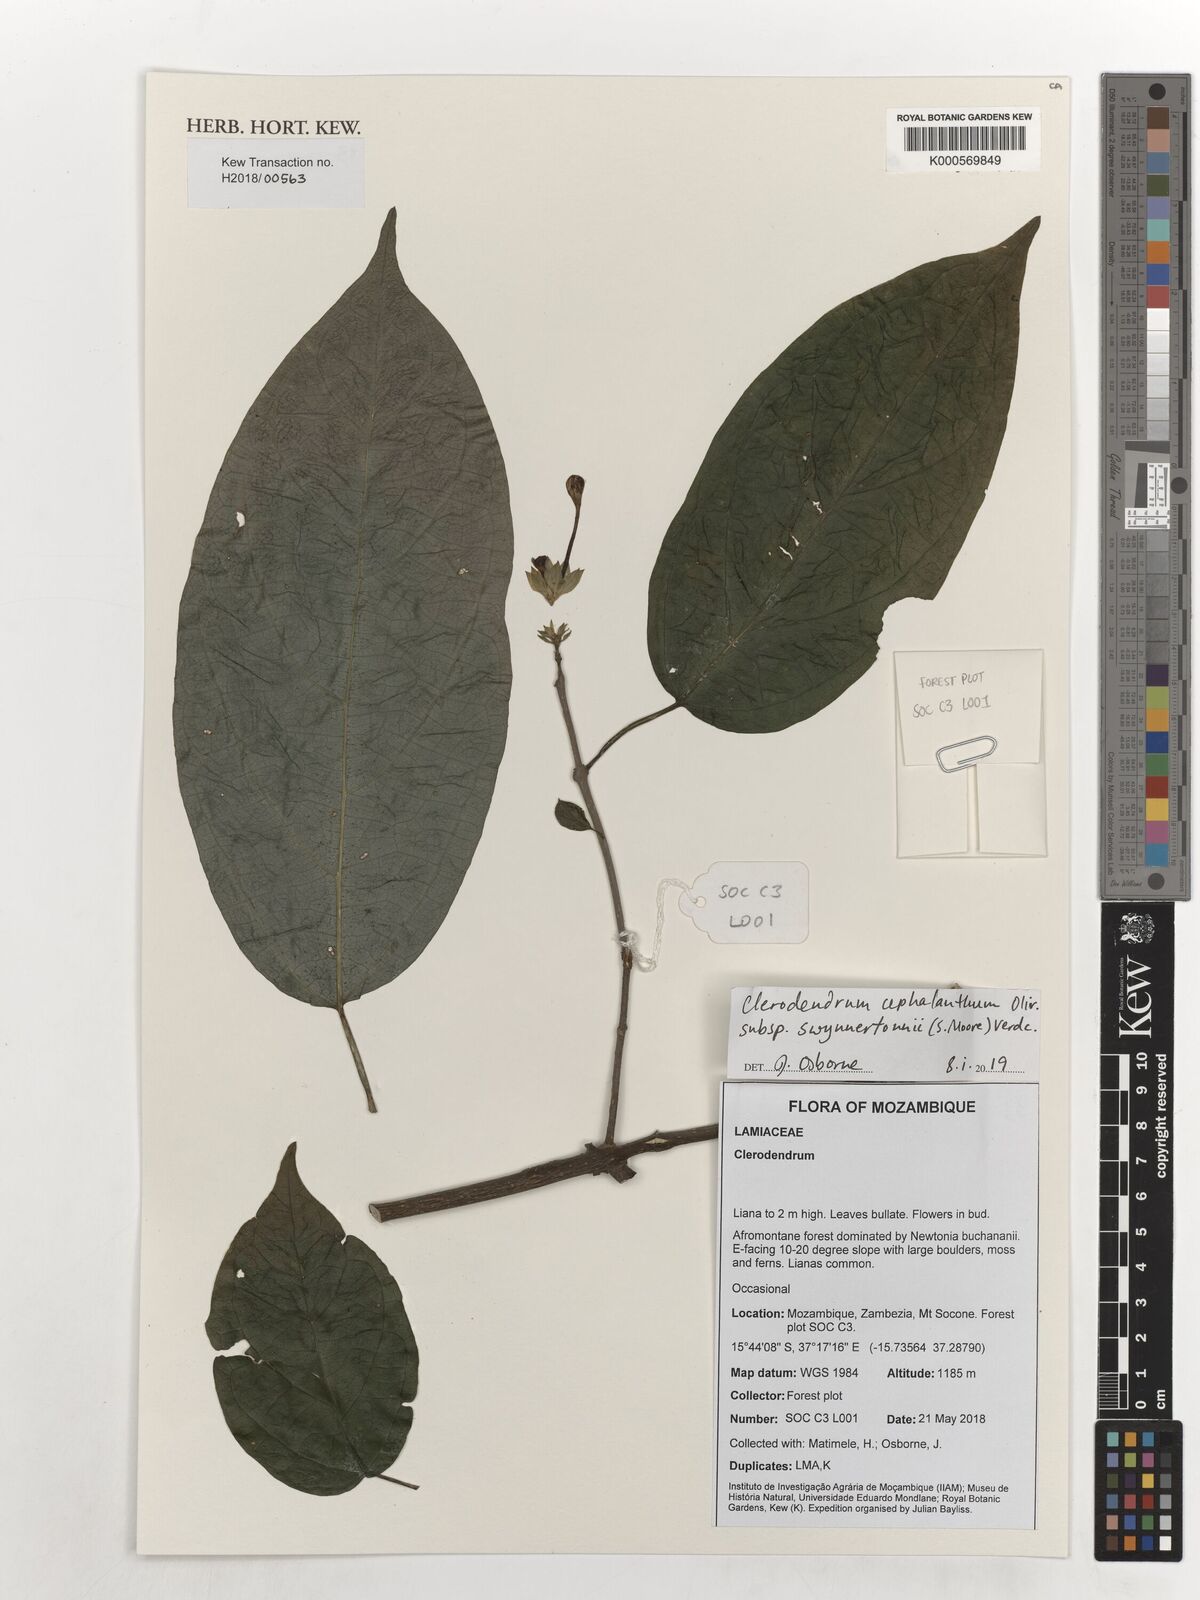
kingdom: Plantae
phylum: Tracheophyta
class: Magnoliopsida
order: Lamiales
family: Lamiaceae
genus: Clerodendrum
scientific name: Clerodendrum cephalanthum
